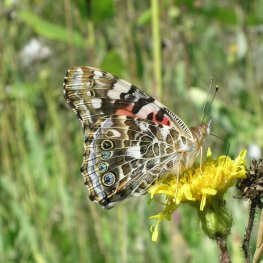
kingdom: Animalia
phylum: Arthropoda
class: Insecta
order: Lepidoptera
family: Nymphalidae
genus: Vanessa
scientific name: Vanessa cardui
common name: Painted Lady
